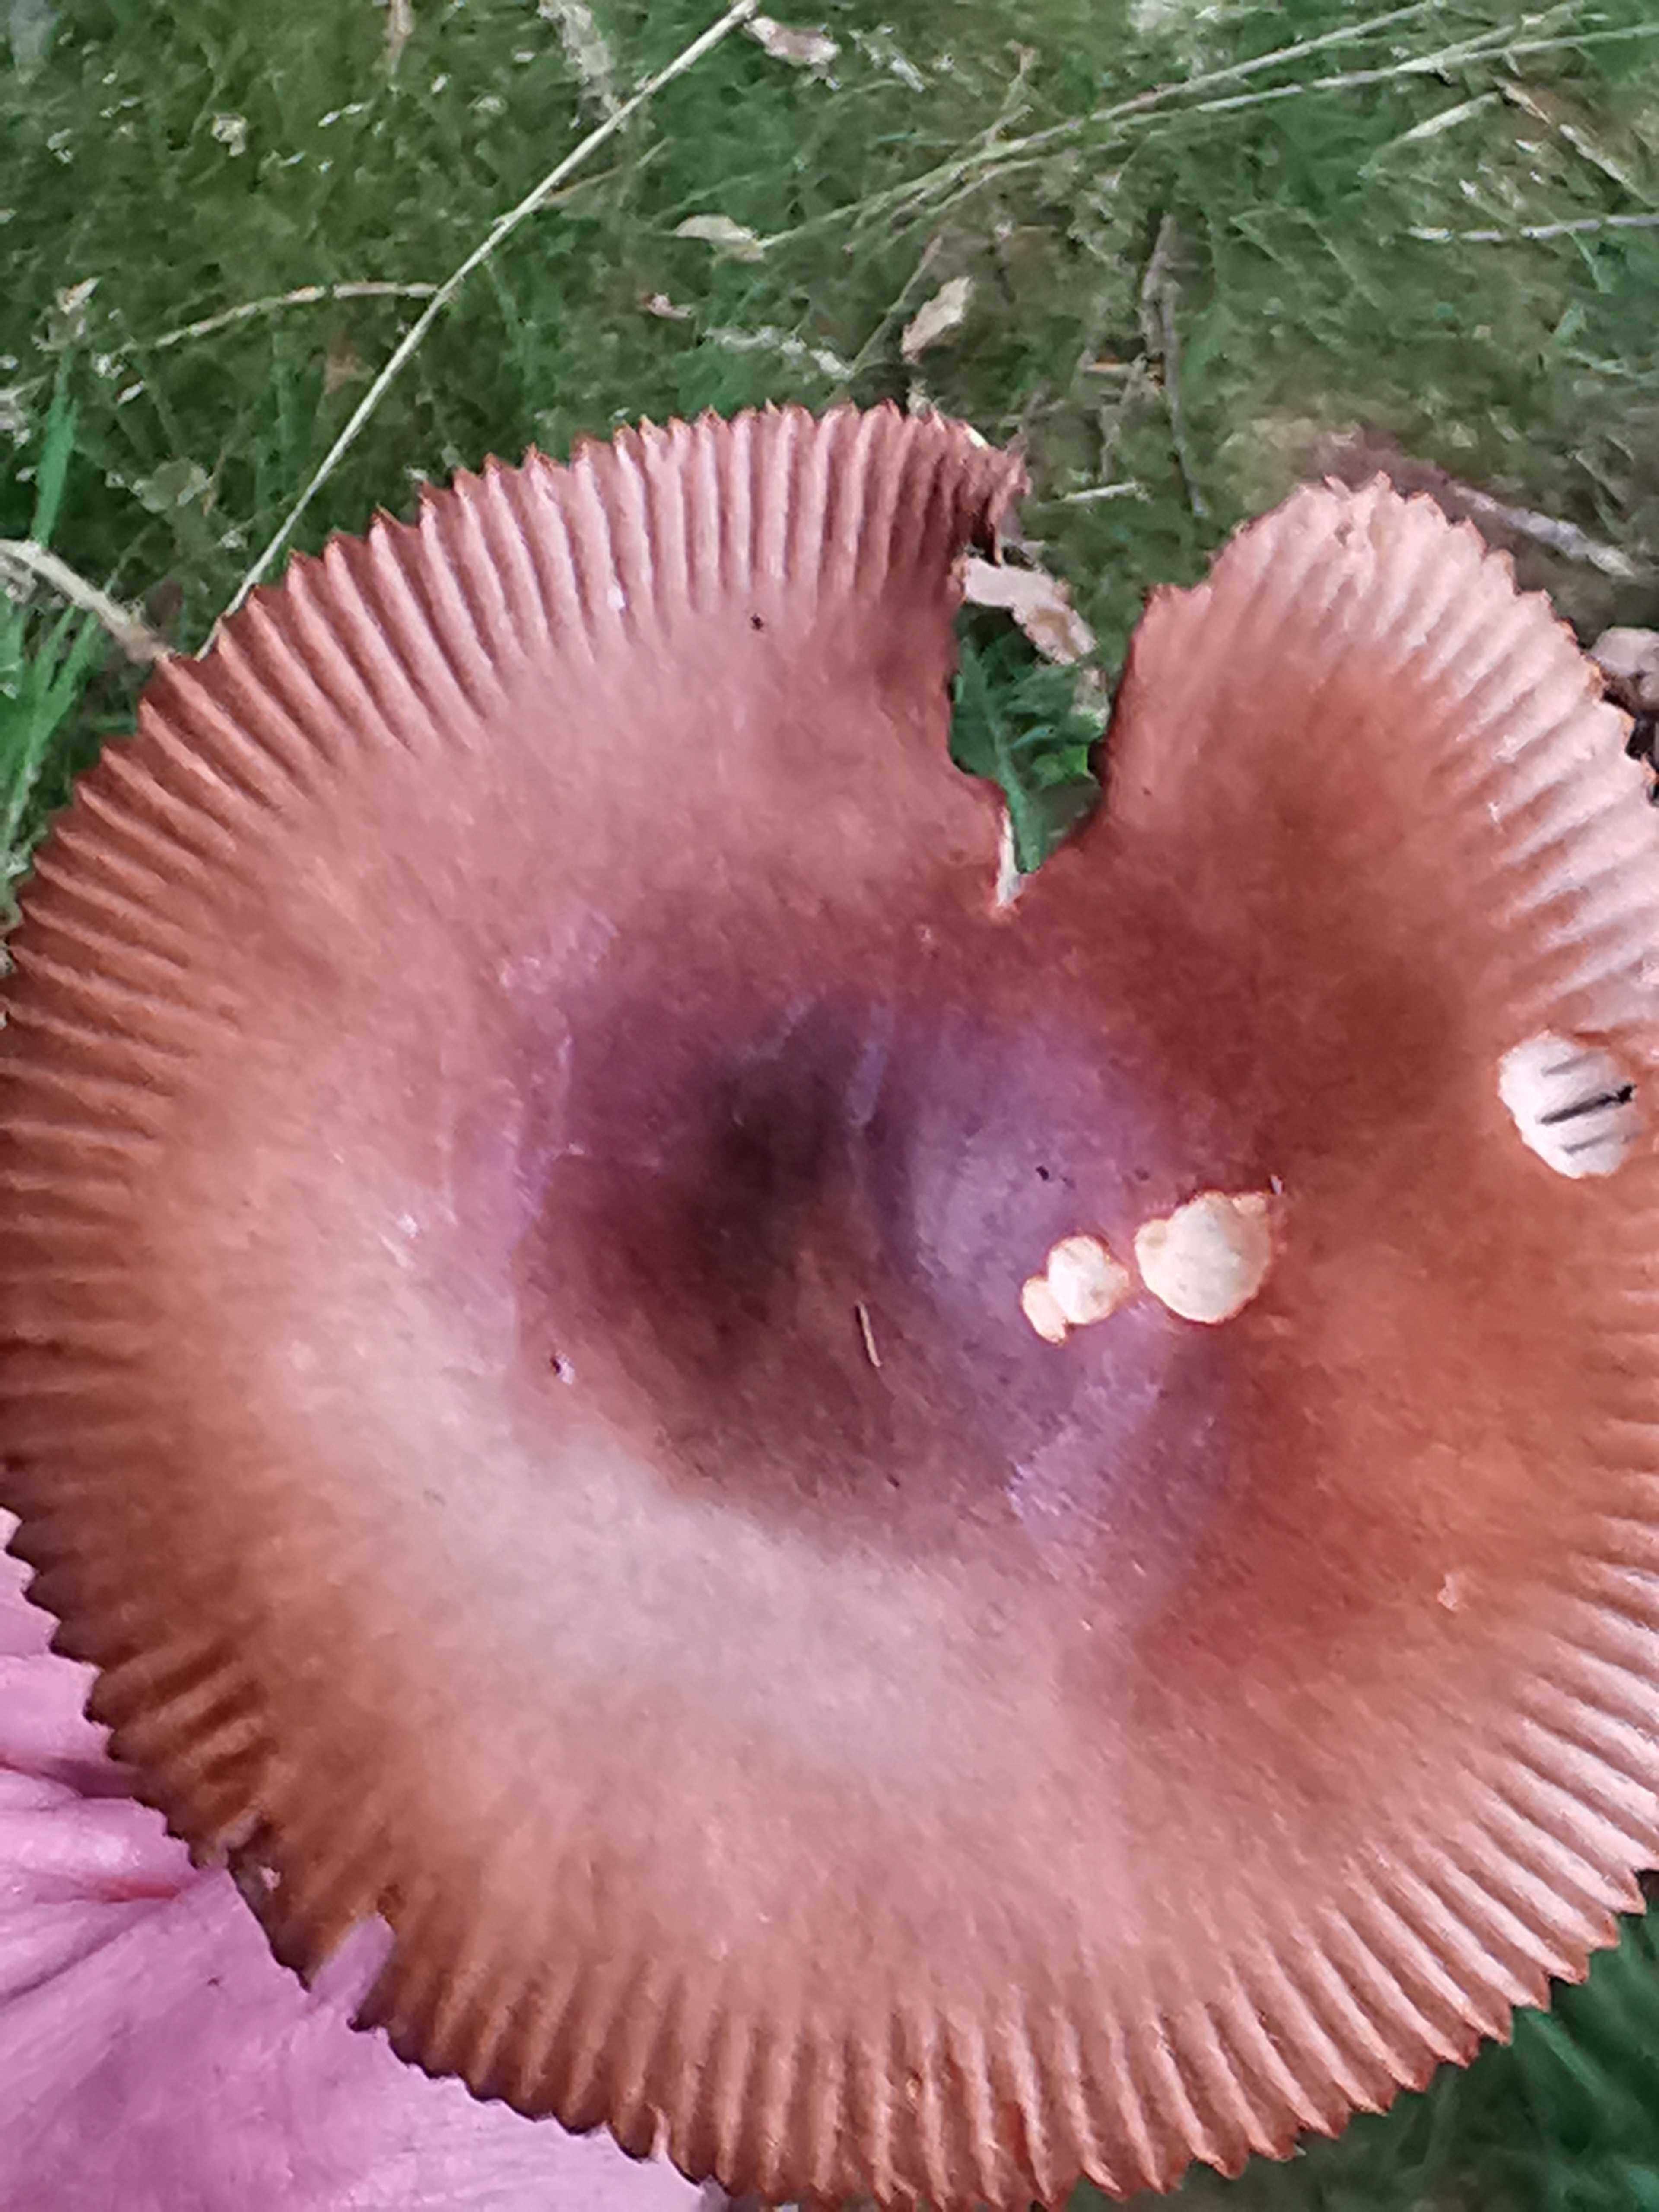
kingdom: Fungi
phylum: Basidiomycota
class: Agaricomycetes
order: Agaricales
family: Amanitaceae
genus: Amanita
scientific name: Amanita fulva
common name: brun kam-fluesvamp
